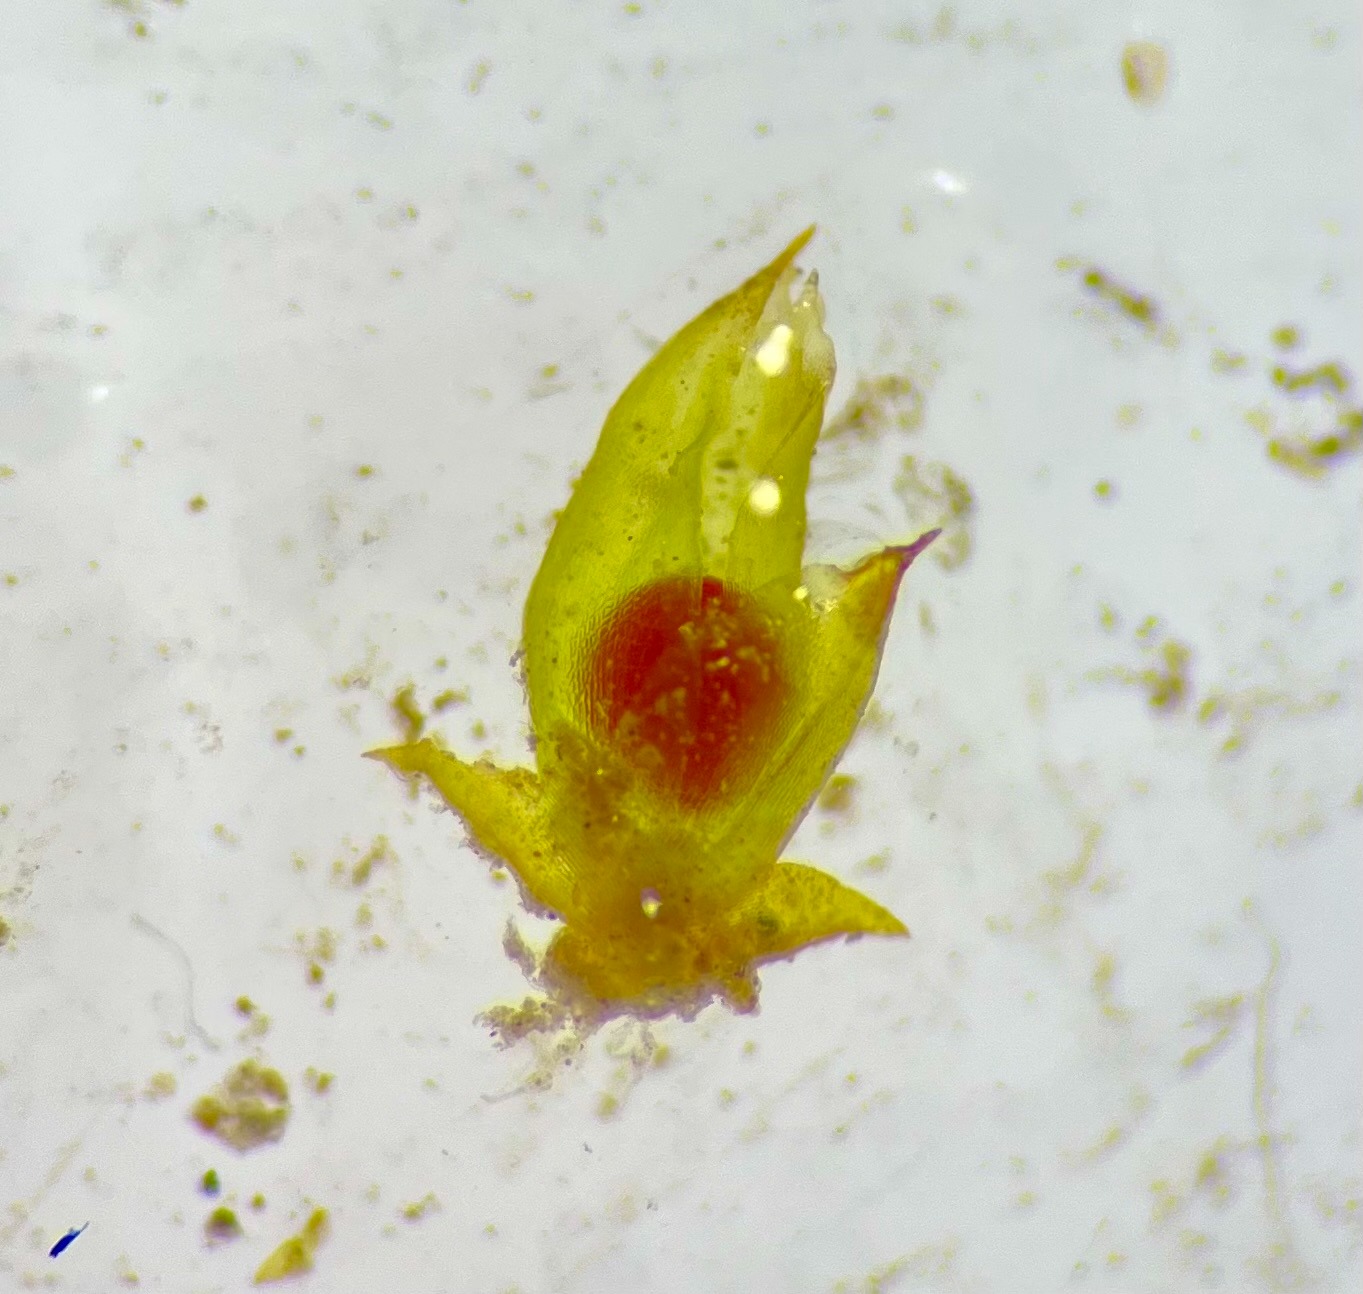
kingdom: Plantae
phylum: Bryophyta
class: Bryopsida
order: Pottiales
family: Pottiaceae
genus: Acaulon
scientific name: Acaulon muticum
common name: Siddende ægmos
